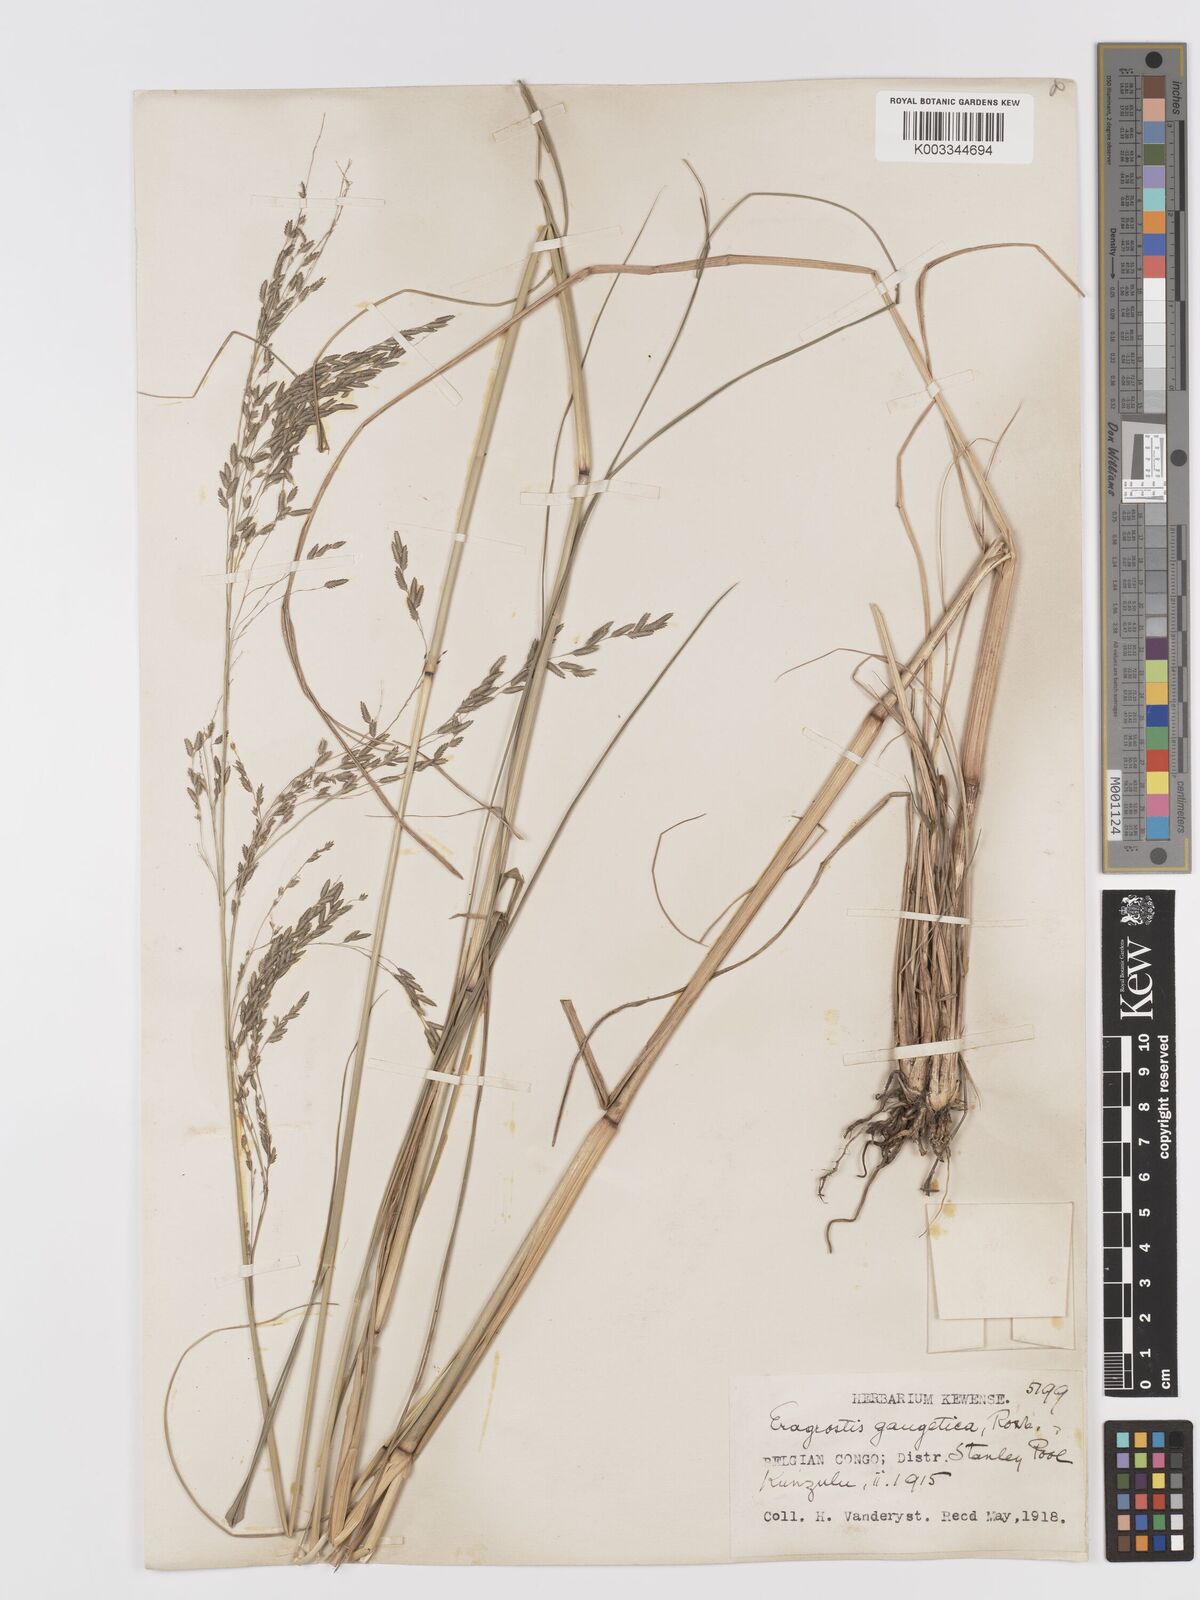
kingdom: Plantae
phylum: Tracheophyta
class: Liliopsida
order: Poales
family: Poaceae
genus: Eragrostis
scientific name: Eragrostis atrovirens
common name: Thalia lovegrass
